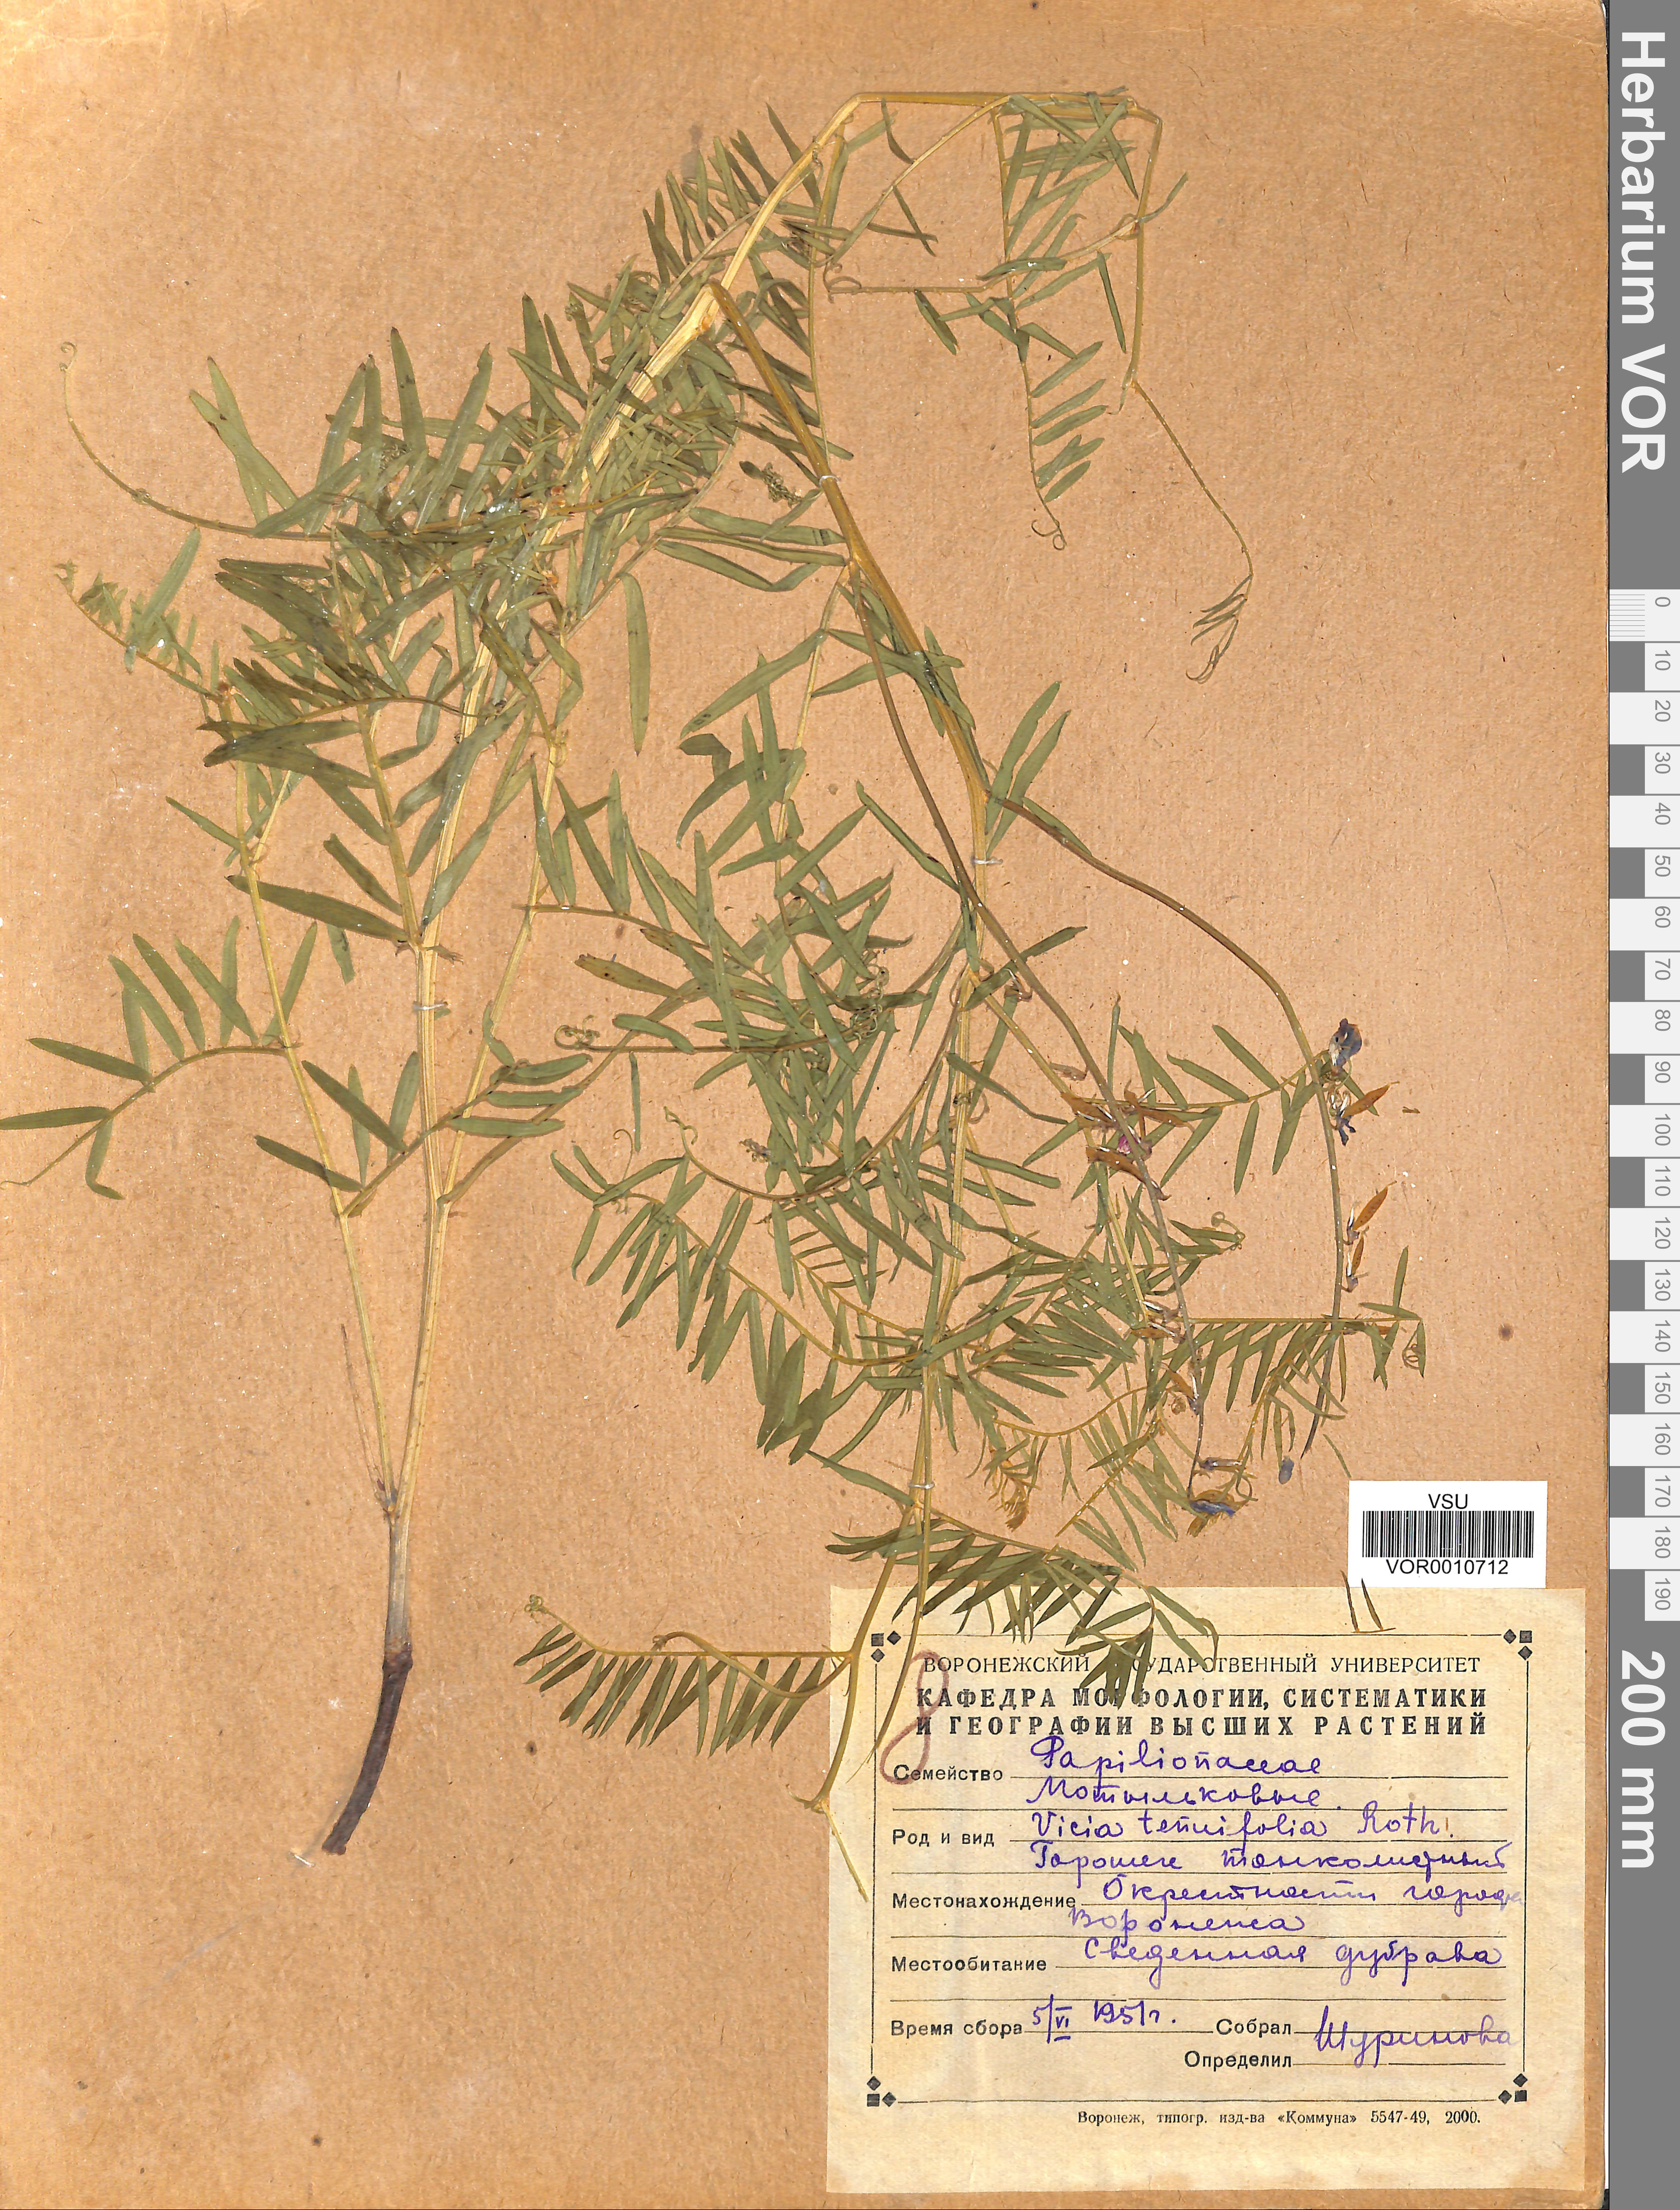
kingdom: Plantae
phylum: Tracheophyta
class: Magnoliopsida
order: Fabales
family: Fabaceae
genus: Vicia
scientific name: Vicia tenuifolia
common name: Fine-leaved vetch
